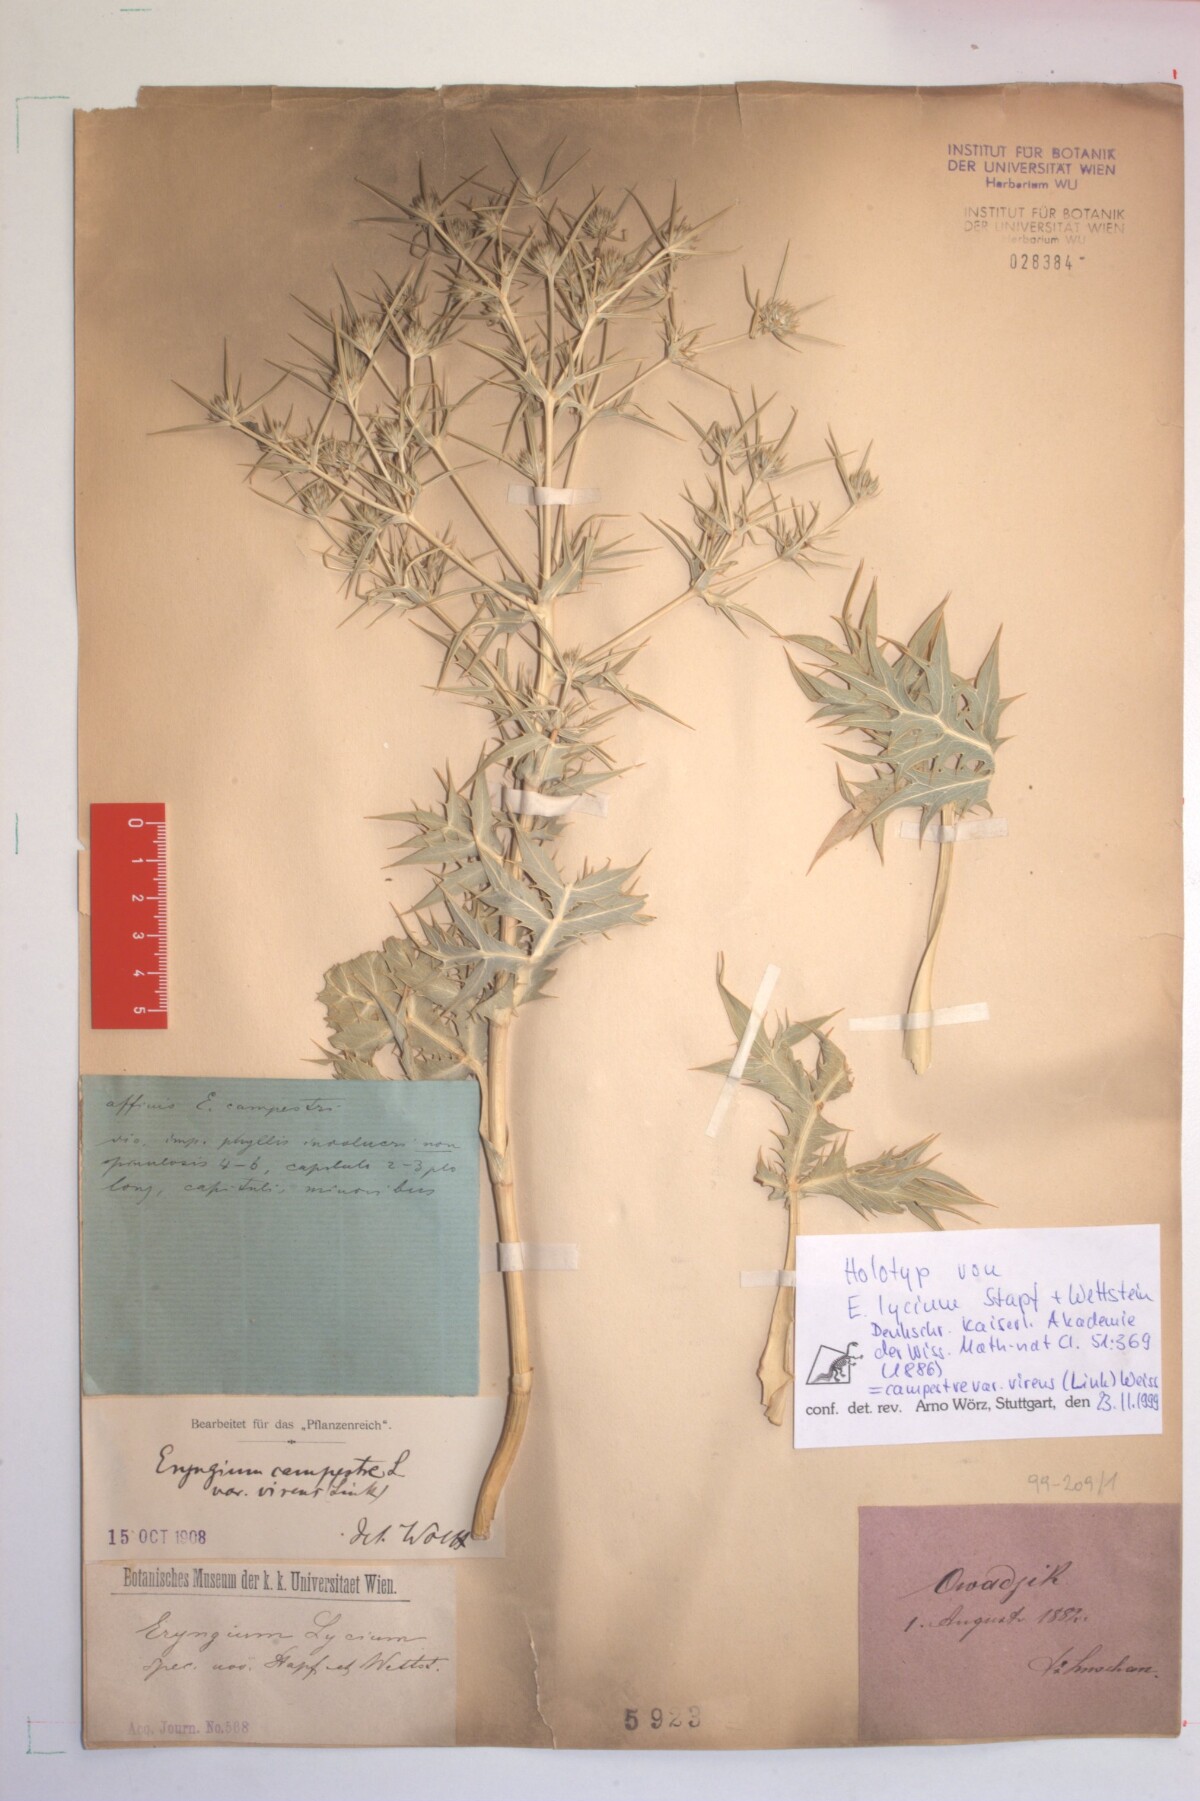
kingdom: Plantae
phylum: Tracheophyta
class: Magnoliopsida
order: Apiales
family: Apiaceae
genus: Eryngium
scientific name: Eryngium campestre
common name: Field eryngo
